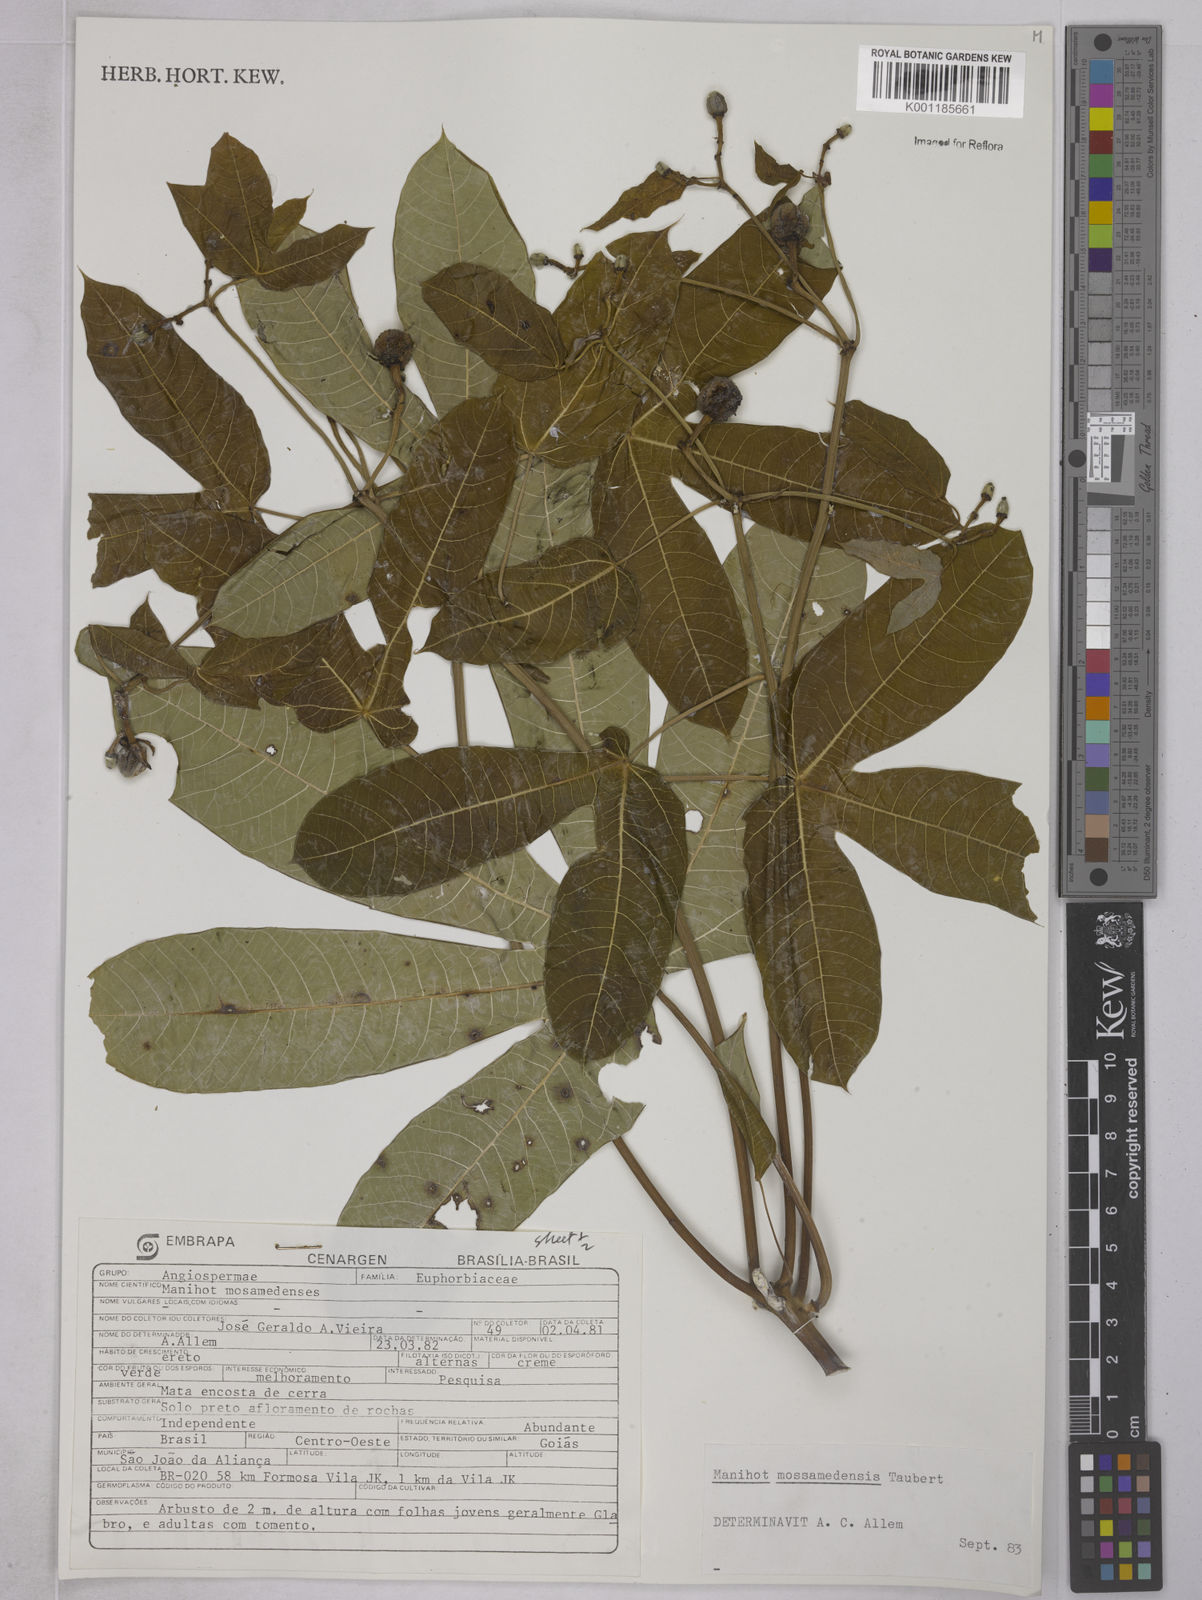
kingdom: Plantae
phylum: Tracheophyta
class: Magnoliopsida
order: Malpighiales
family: Euphorbiaceae
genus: Manihot
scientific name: Manihot mossamedensis
